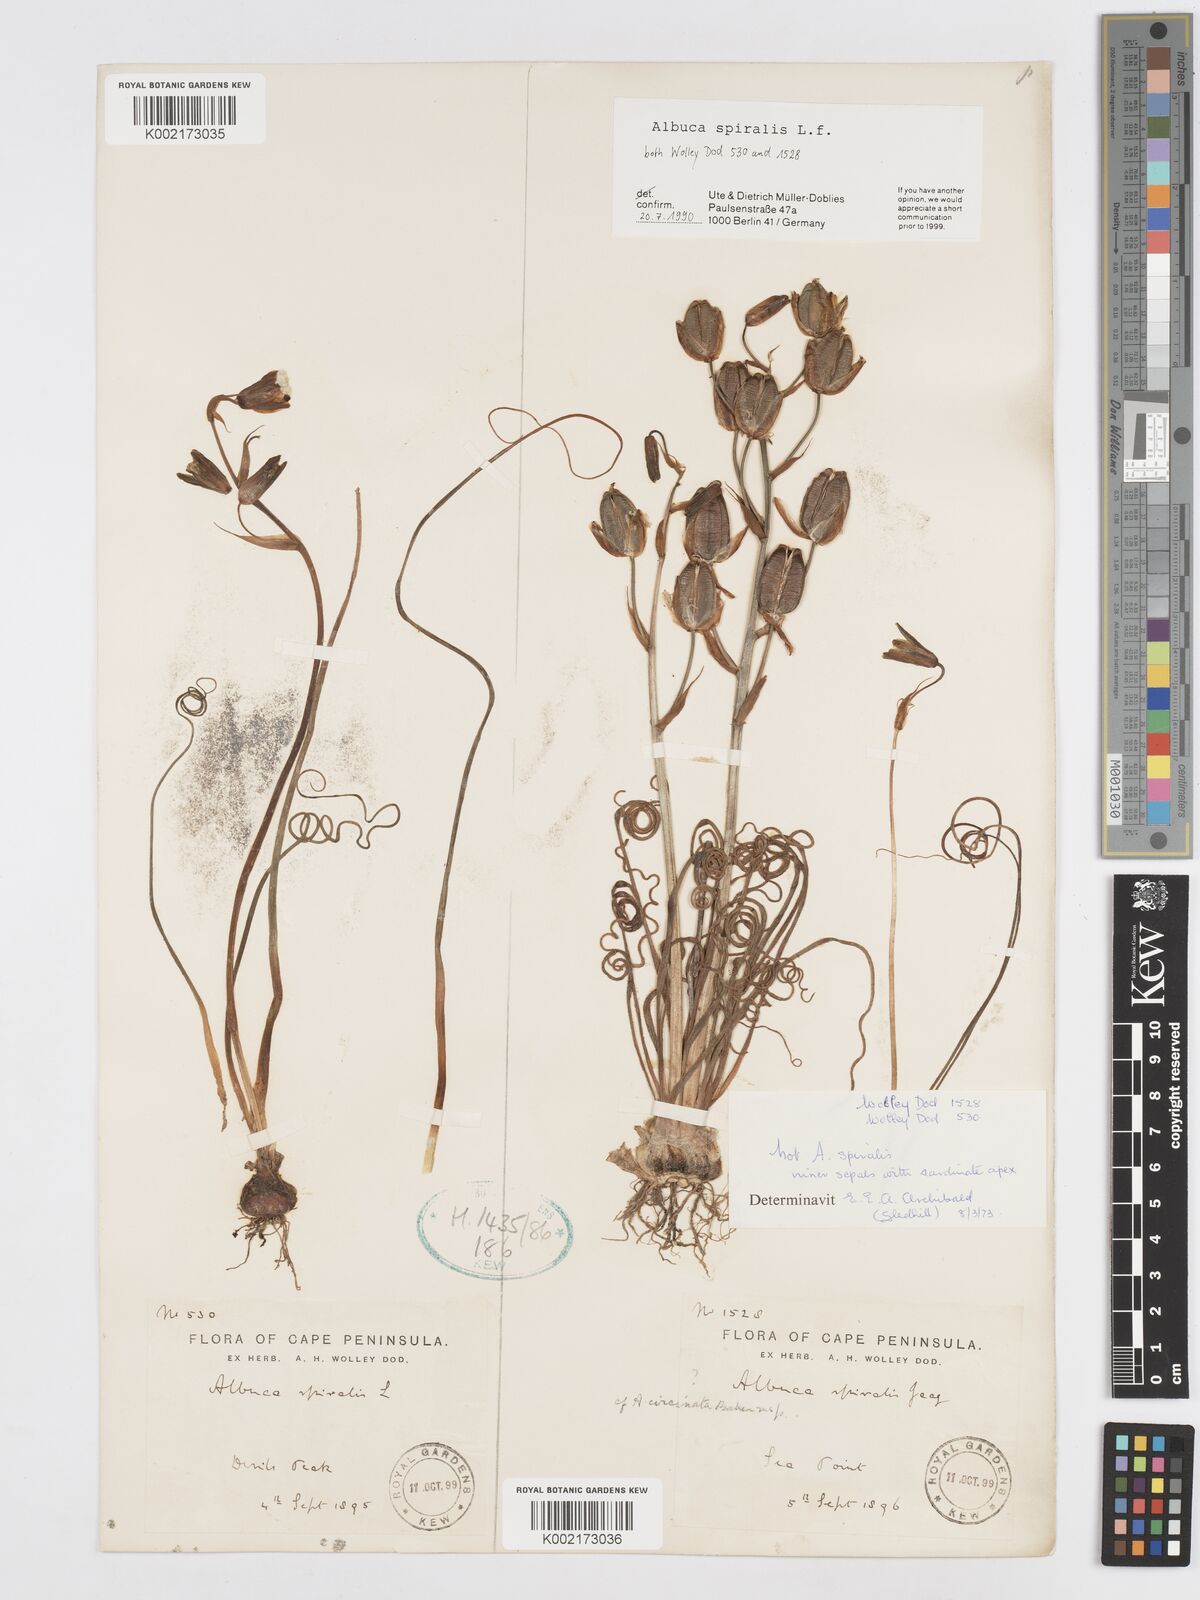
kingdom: Plantae
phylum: Tracheophyta
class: Liliopsida
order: Asparagales
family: Asparagaceae
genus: Albuca
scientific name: Albuca spiralis
